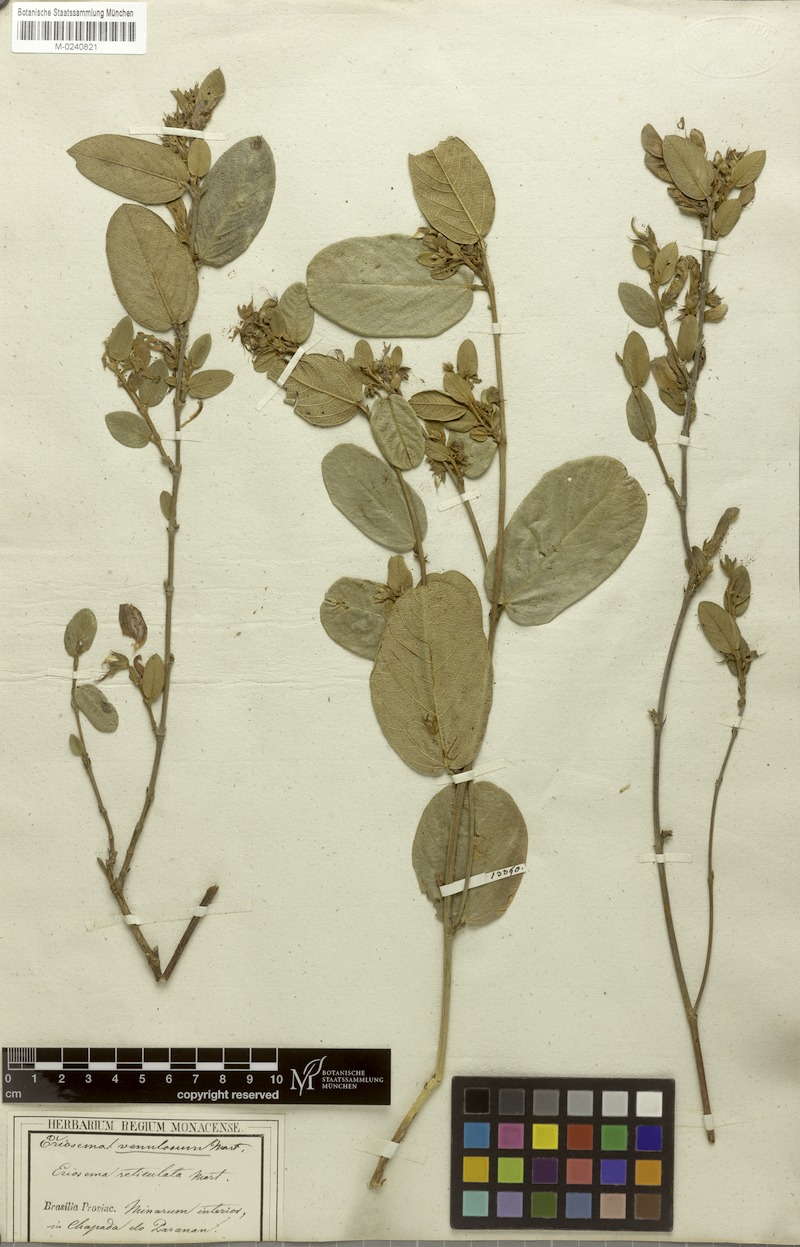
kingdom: Plantae
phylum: Tracheophyta
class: Magnoliopsida
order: Fabales
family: Fabaceae
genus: Eriosema
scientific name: Eriosema venulosum
